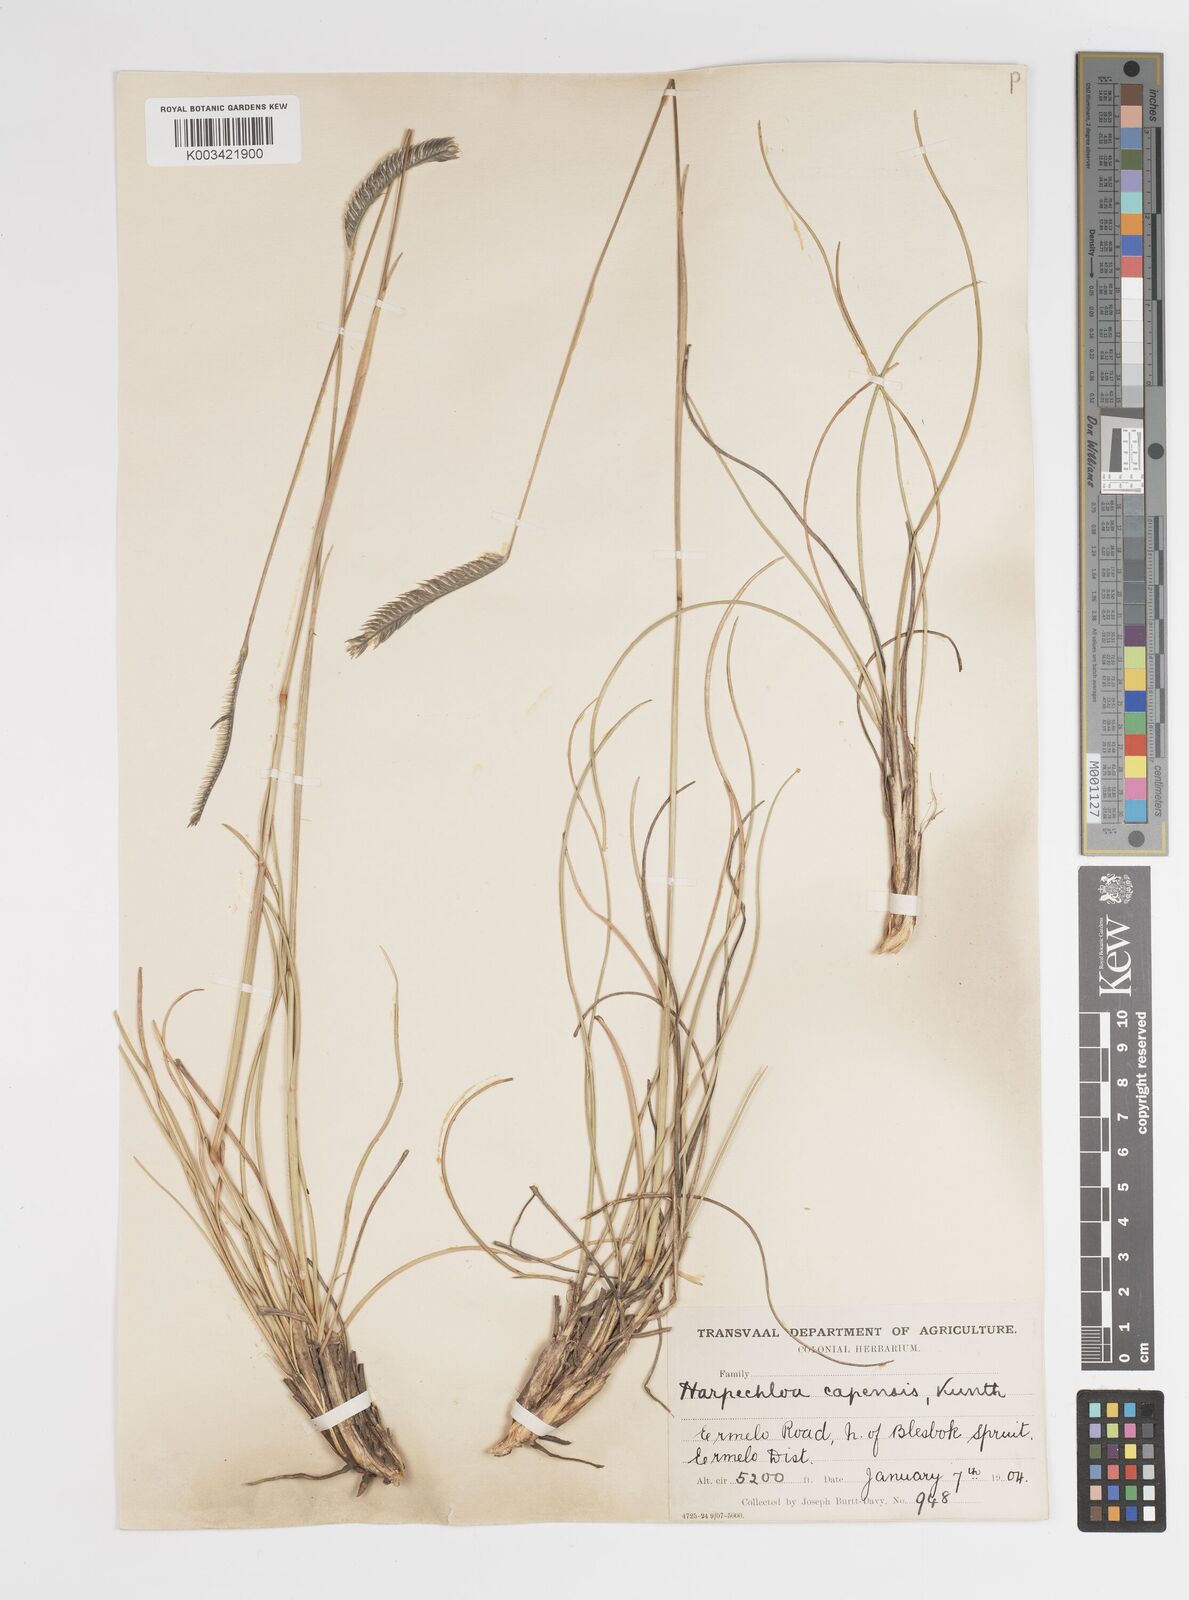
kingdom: Plantae
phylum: Tracheophyta
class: Liliopsida
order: Poales
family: Poaceae
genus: Harpochloa
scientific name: Harpochloa falx
